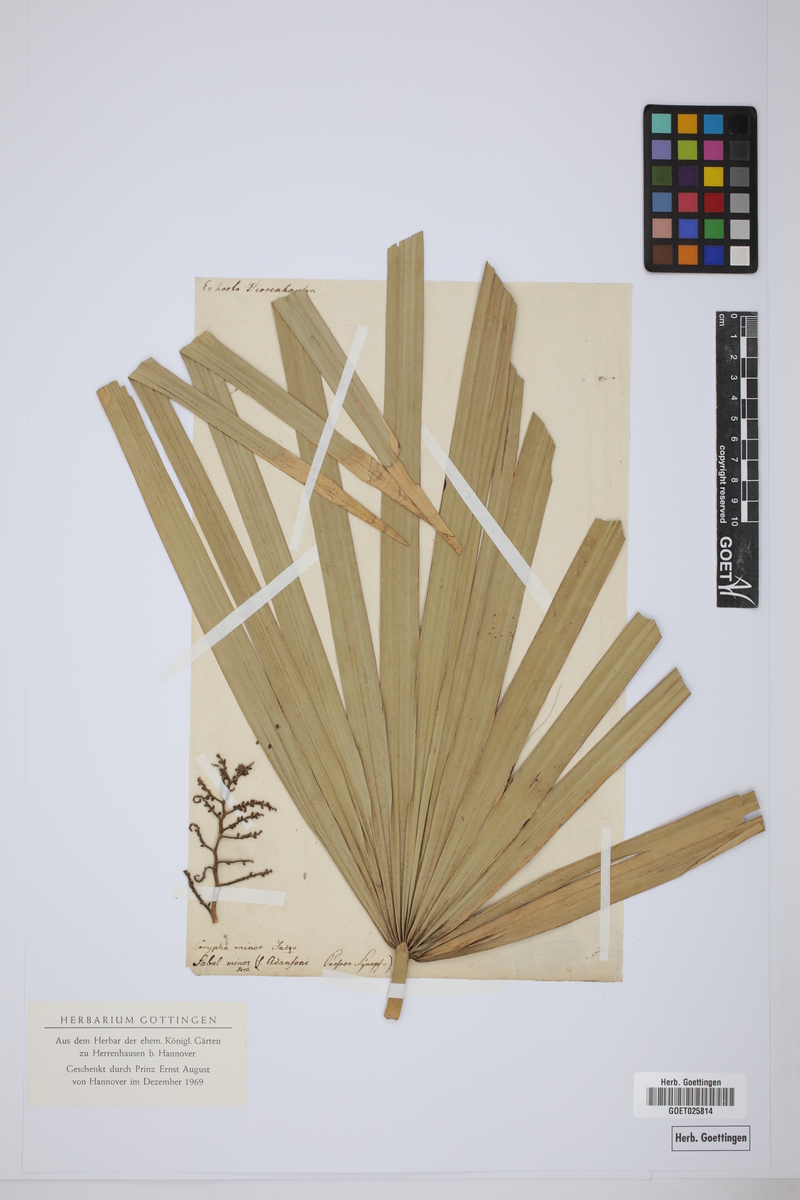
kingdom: Plantae
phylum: Tracheophyta
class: Liliopsida
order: Arecales
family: Arecaceae
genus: Sabal
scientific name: Sabal minor
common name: Dwarf palmetto
